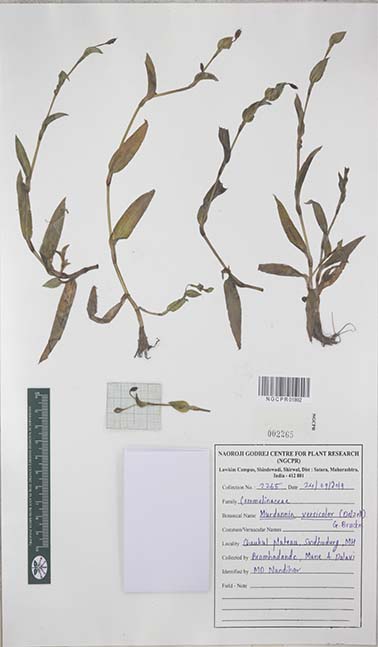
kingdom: Plantae
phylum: Tracheophyta
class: Liliopsida
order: Commelinales
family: Commelinaceae
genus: Murdannia
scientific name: Murdannia versicolor
